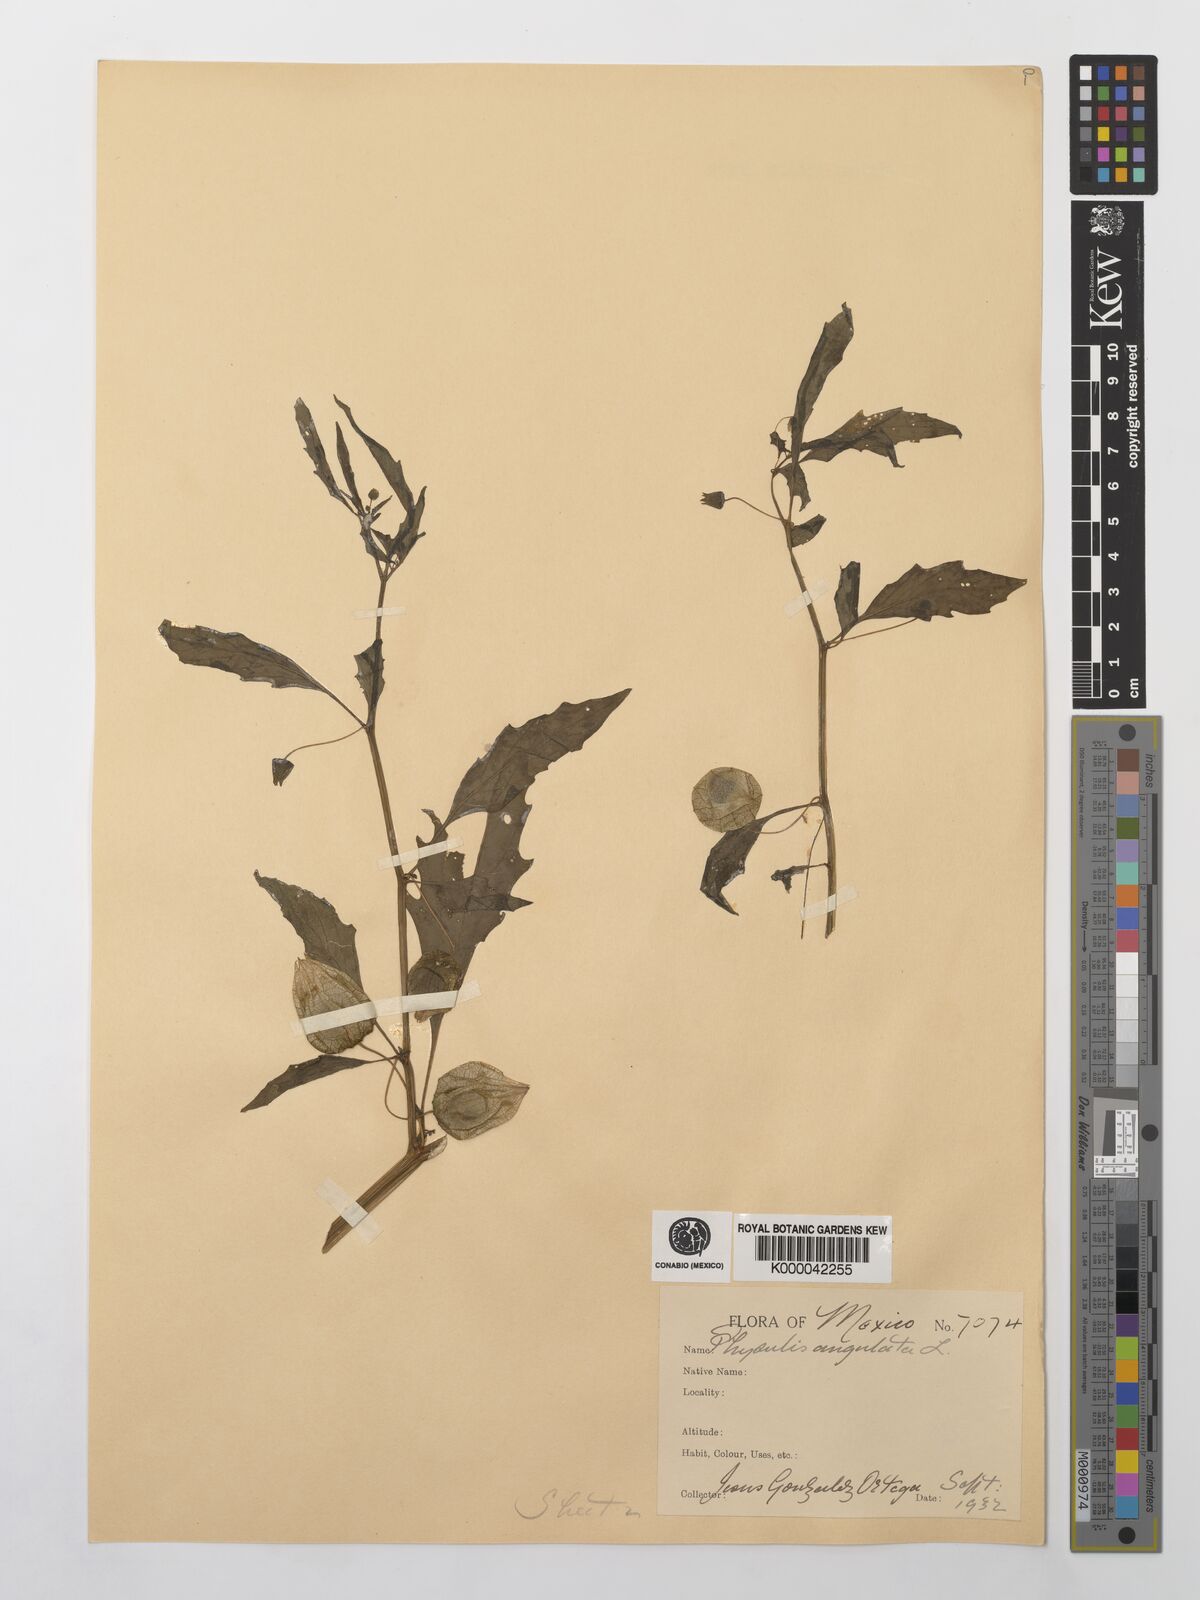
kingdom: Plantae
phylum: Tracheophyta
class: Magnoliopsida
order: Solanales
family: Solanaceae
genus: Physalis
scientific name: Physalis angulata
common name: Angular winter-cherry
